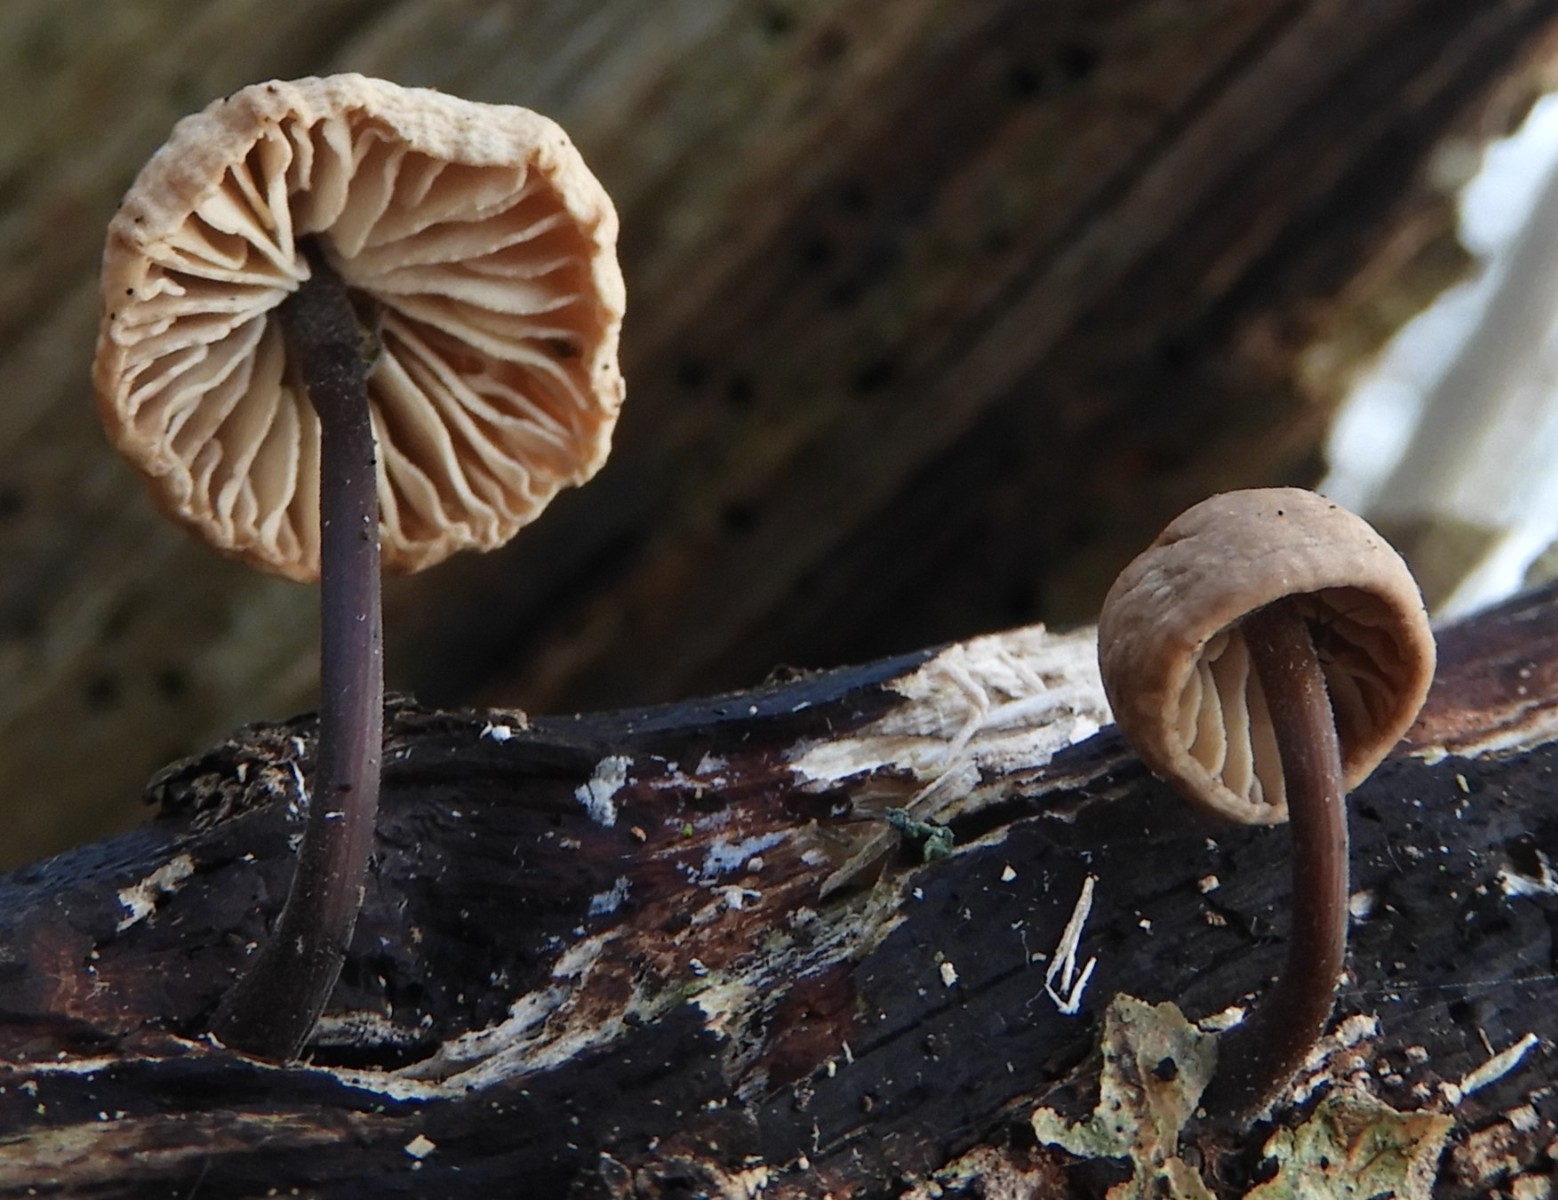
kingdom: Fungi
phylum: Basidiomycota
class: Agaricomycetes
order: Agaricales
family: Omphalotaceae
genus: Mycetinis
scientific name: Mycetinis alliaceus
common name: stor løghat
